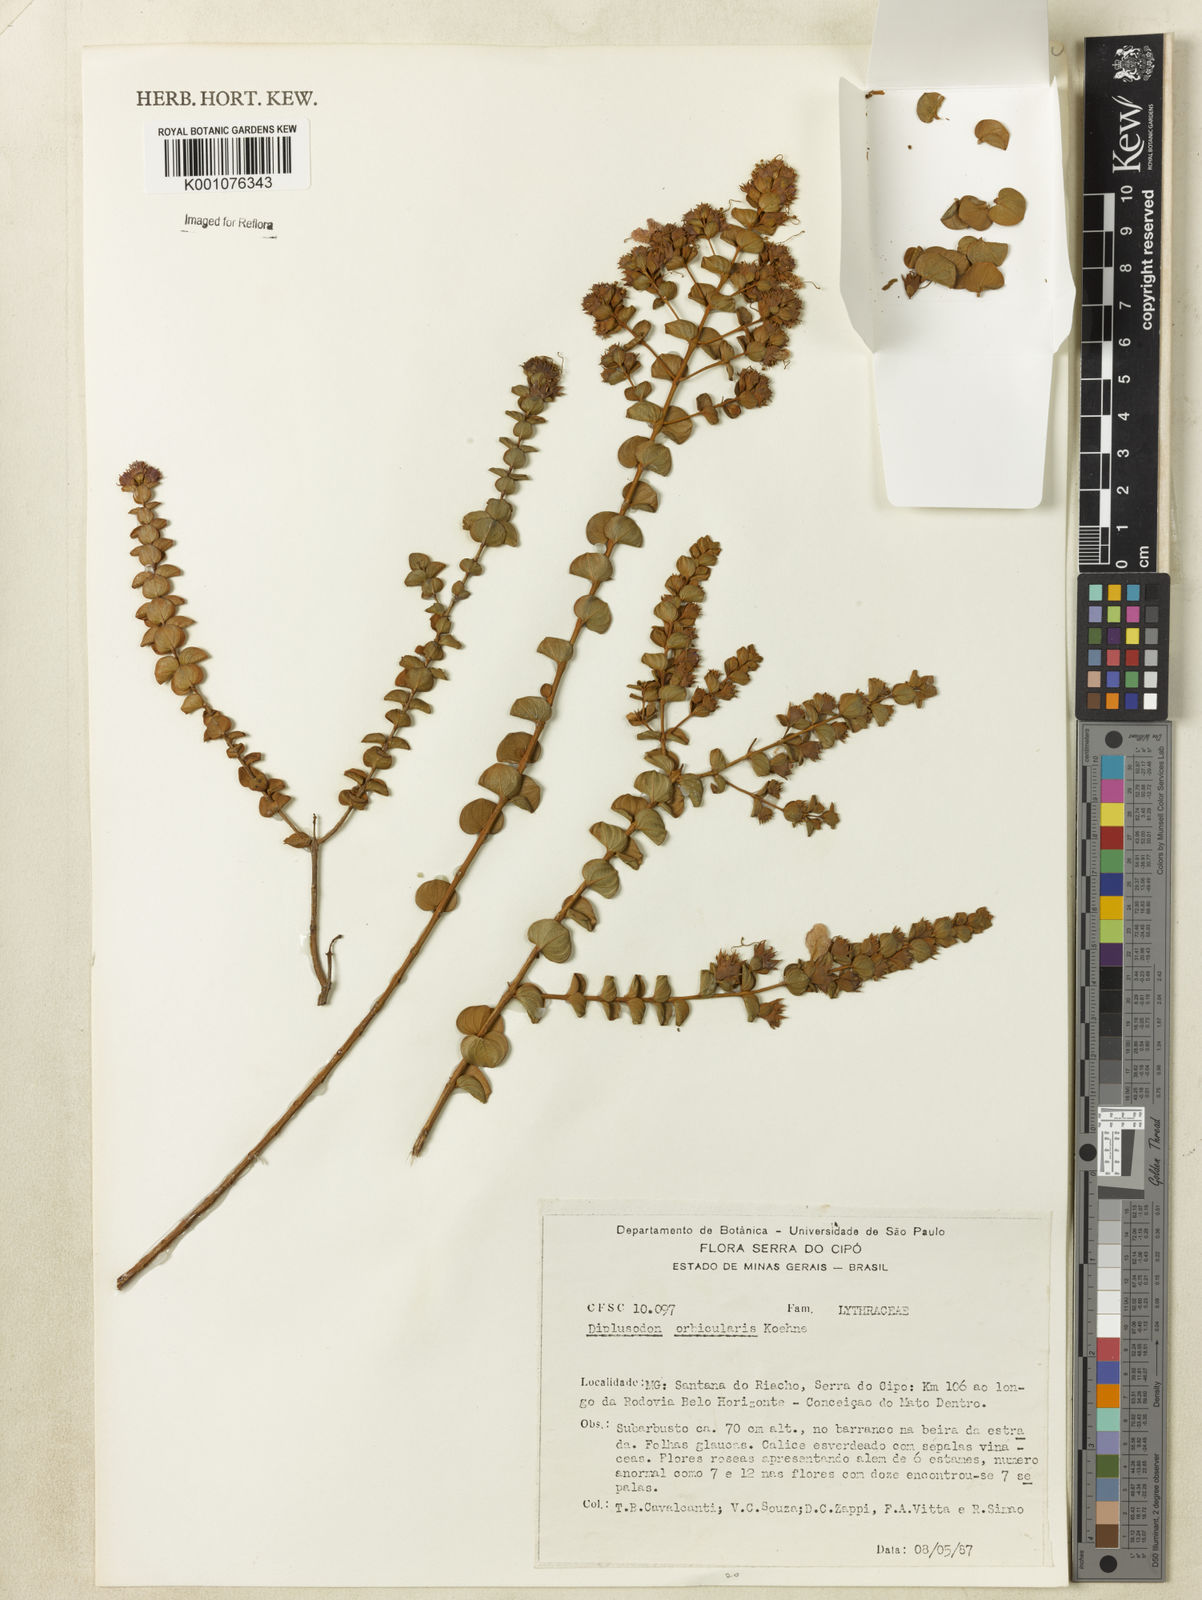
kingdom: Plantae
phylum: Tracheophyta
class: Magnoliopsida
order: Myrtales
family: Lythraceae
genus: Diplusodon
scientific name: Diplusodon orbicularis
